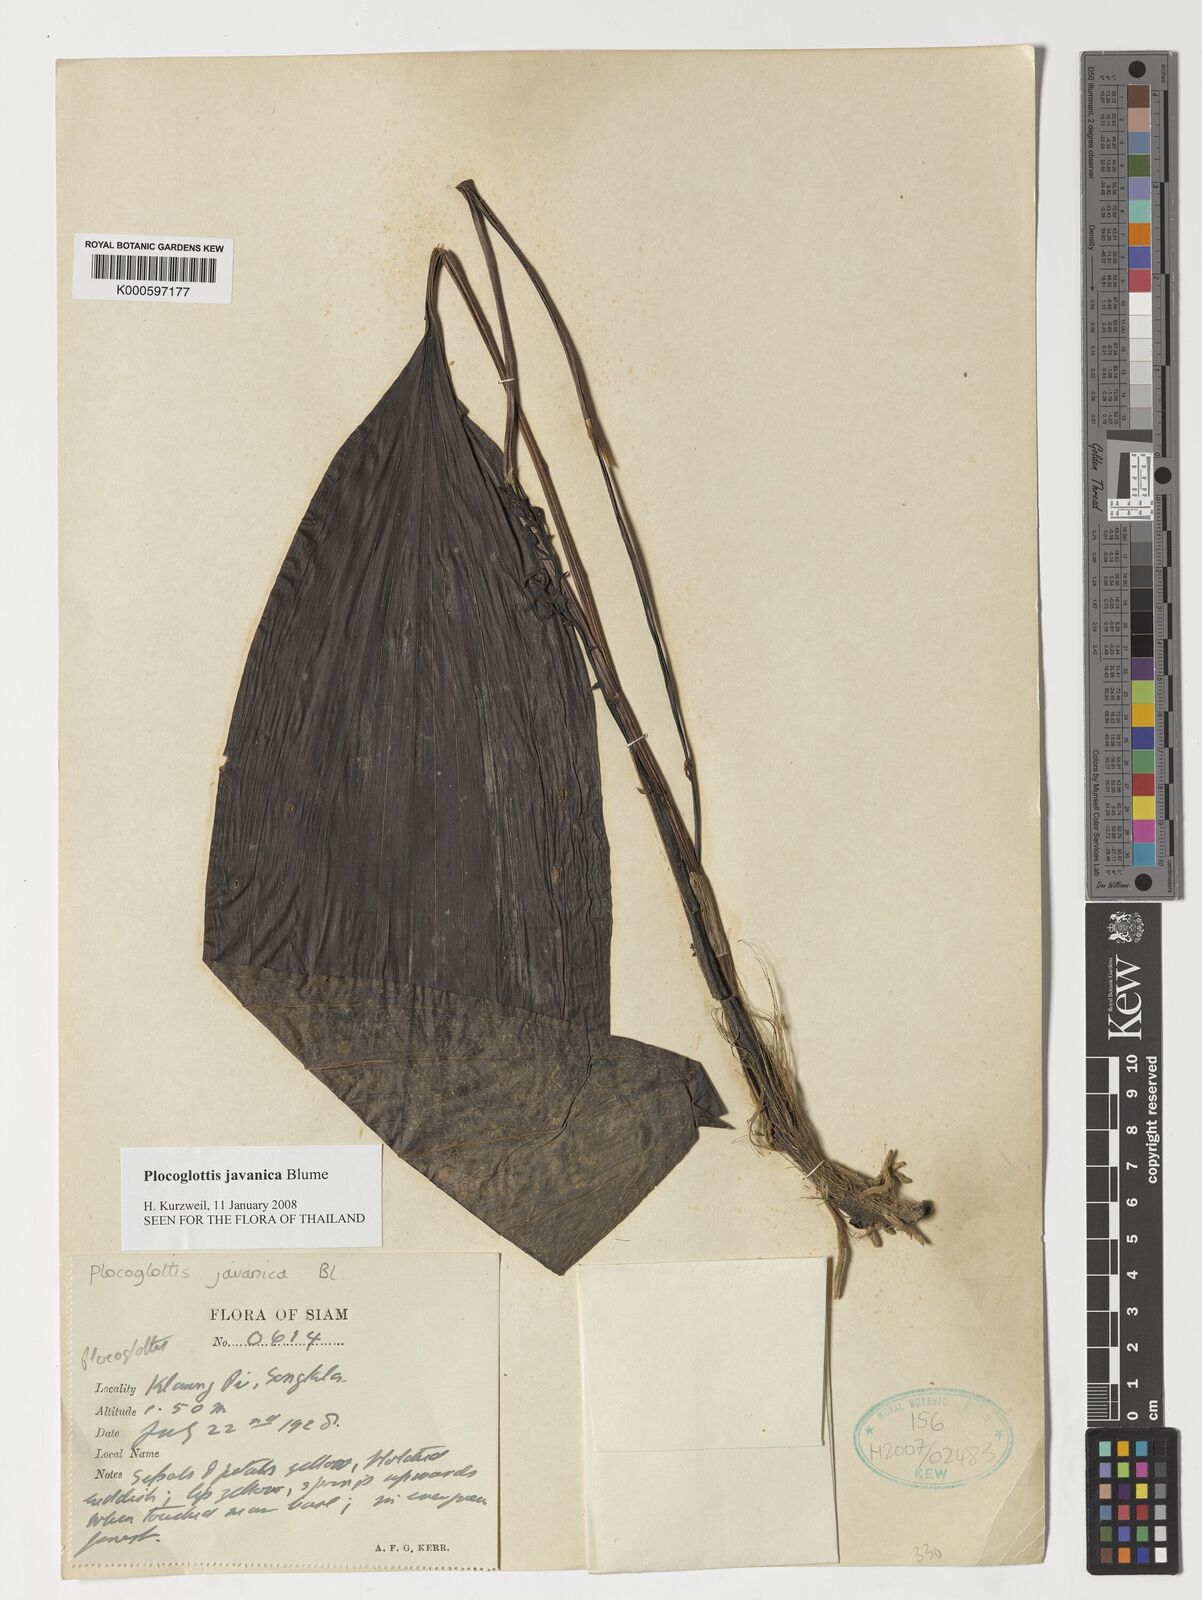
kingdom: Plantae
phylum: Tracheophyta
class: Liliopsida
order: Asparagales
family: Orchidaceae
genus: Plocoglottis
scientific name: Plocoglottis javanica
